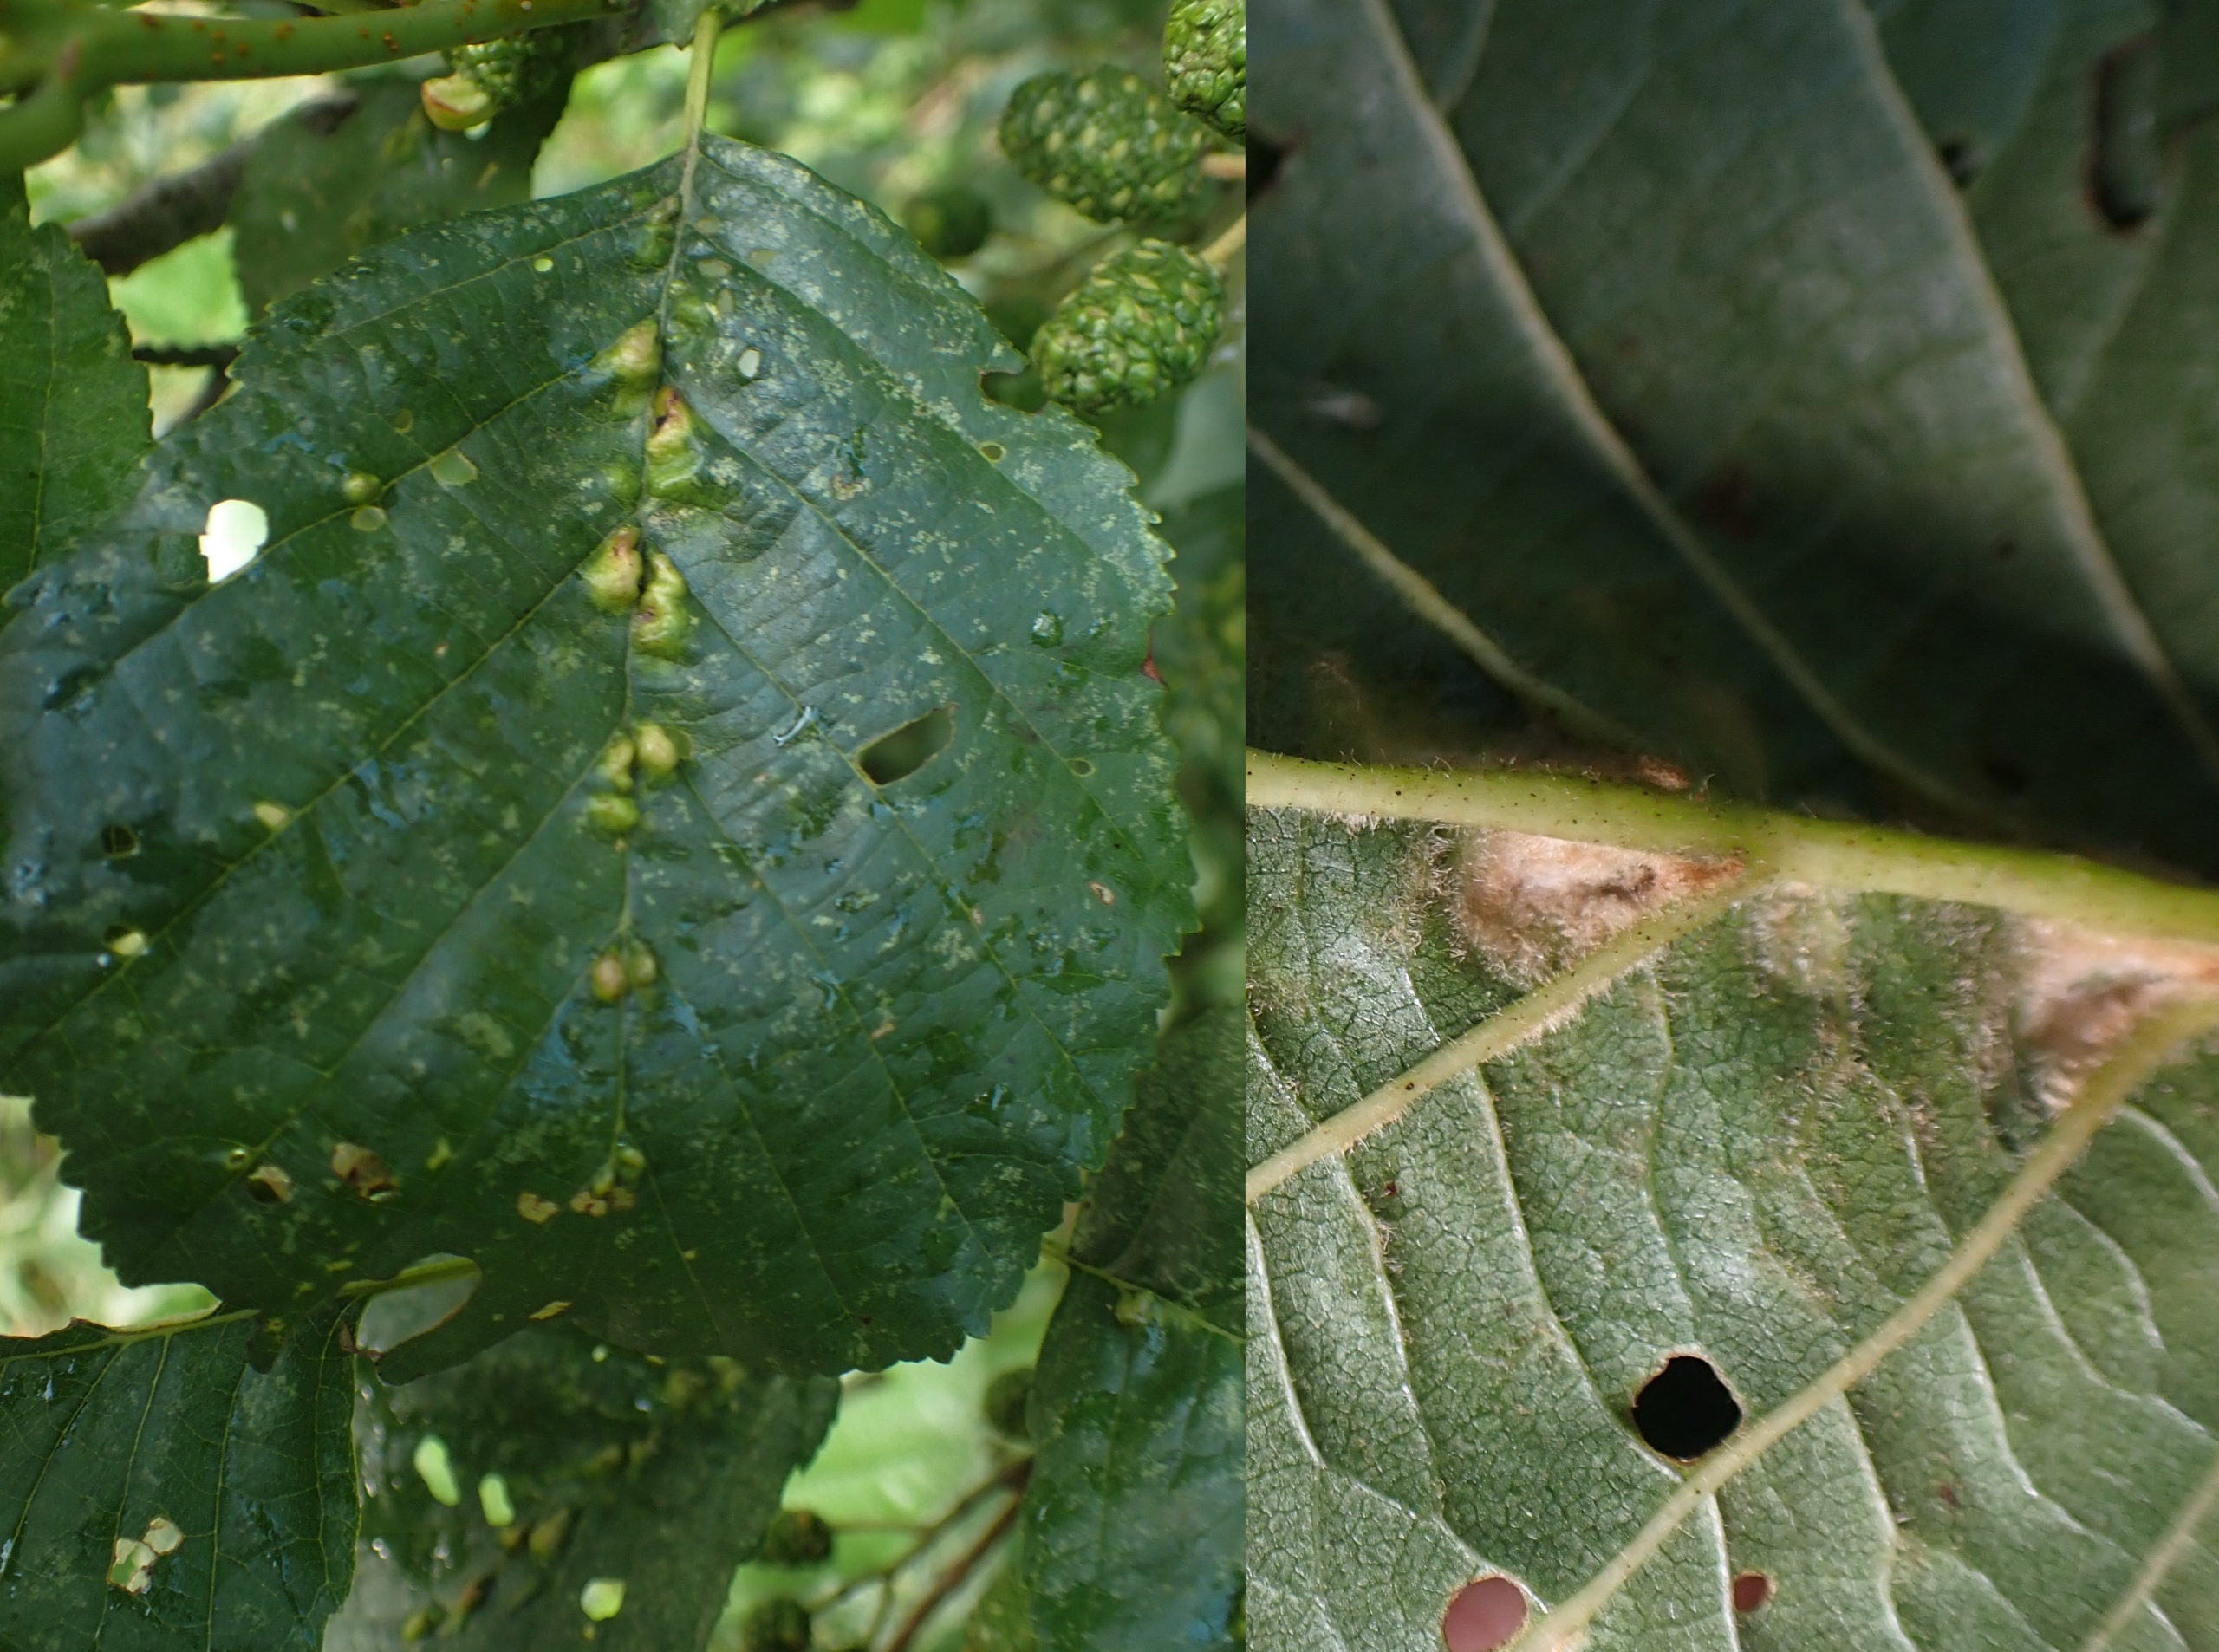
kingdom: Animalia
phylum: Arthropoda
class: Arachnida
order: Trombidiformes
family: Eriophyidae
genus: Eriophyes
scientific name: Eriophyes inangulis
